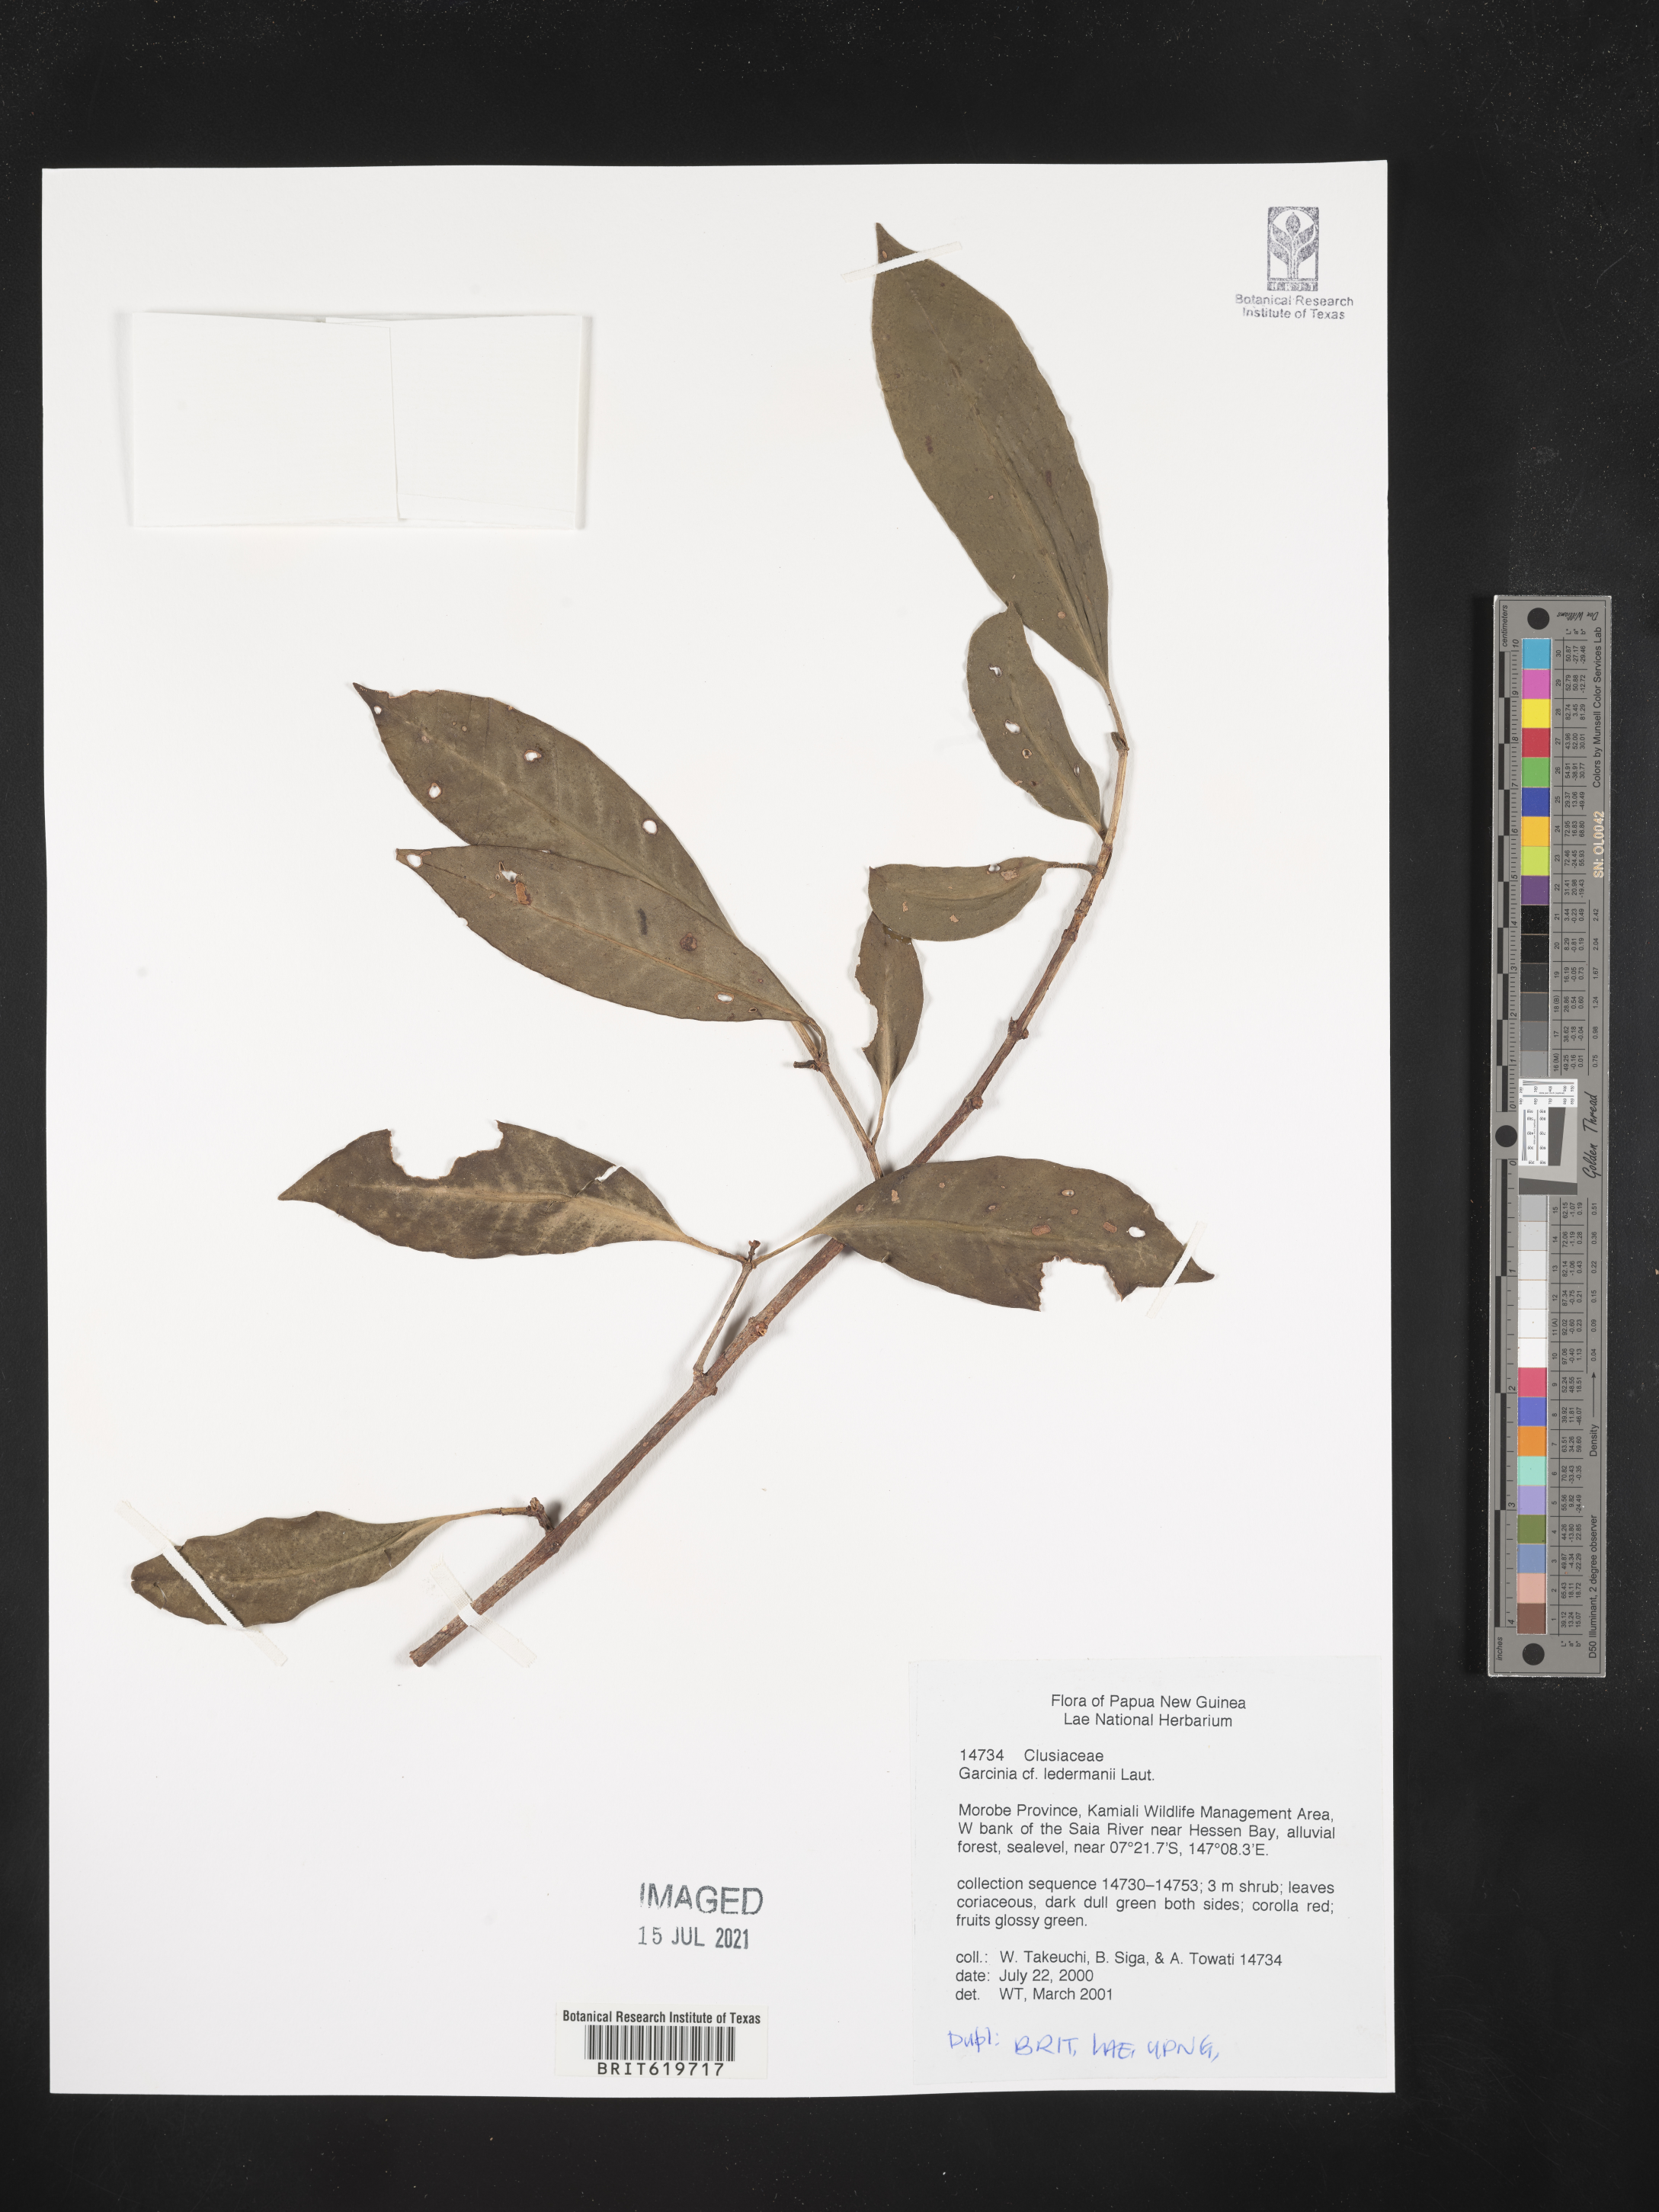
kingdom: Plantae
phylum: Tracheophyta
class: Magnoliopsida
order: Malpighiales
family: Clusiaceae
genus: Garcinia
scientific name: Garcinia ledermannii
